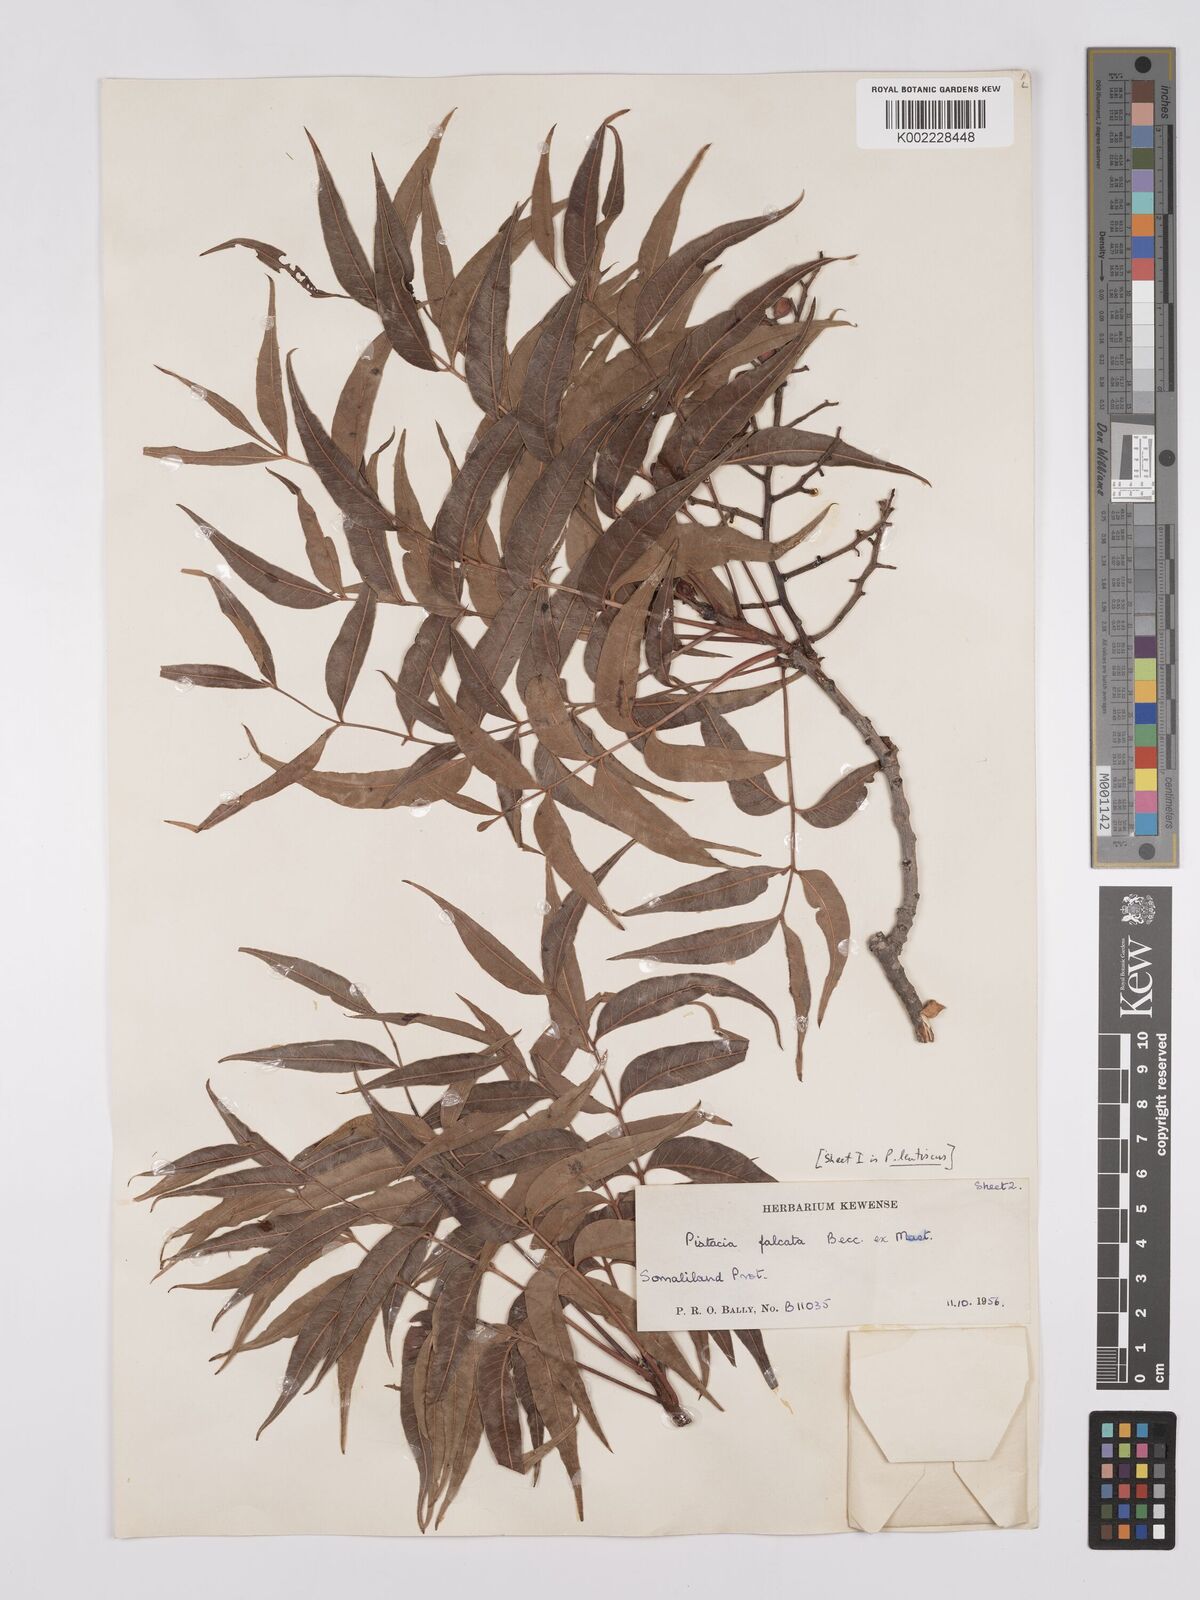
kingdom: Plantae
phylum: Tracheophyta
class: Magnoliopsida
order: Sapindales
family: Anacardiaceae
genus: Pistacia
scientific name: Pistacia falcata
